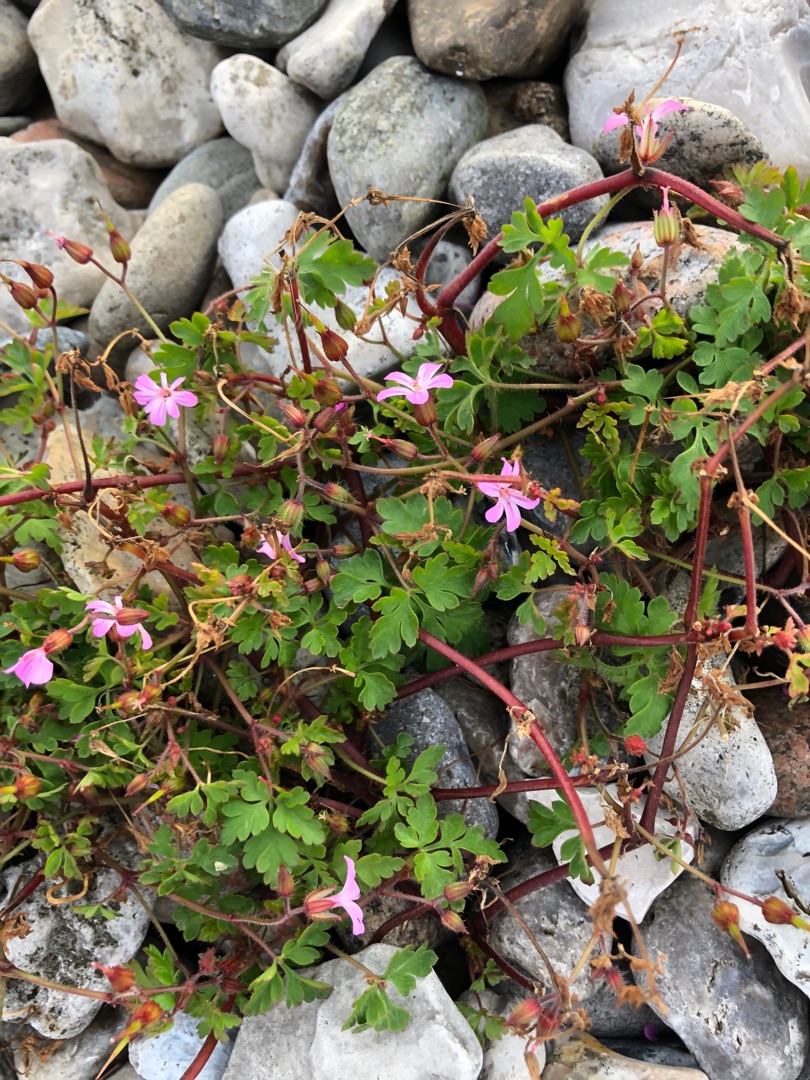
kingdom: Plantae
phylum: Tracheophyta
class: Magnoliopsida
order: Geraniales
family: Geraniaceae
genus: Geranium
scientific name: Geranium robertianum
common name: Stinkende storkenæb
